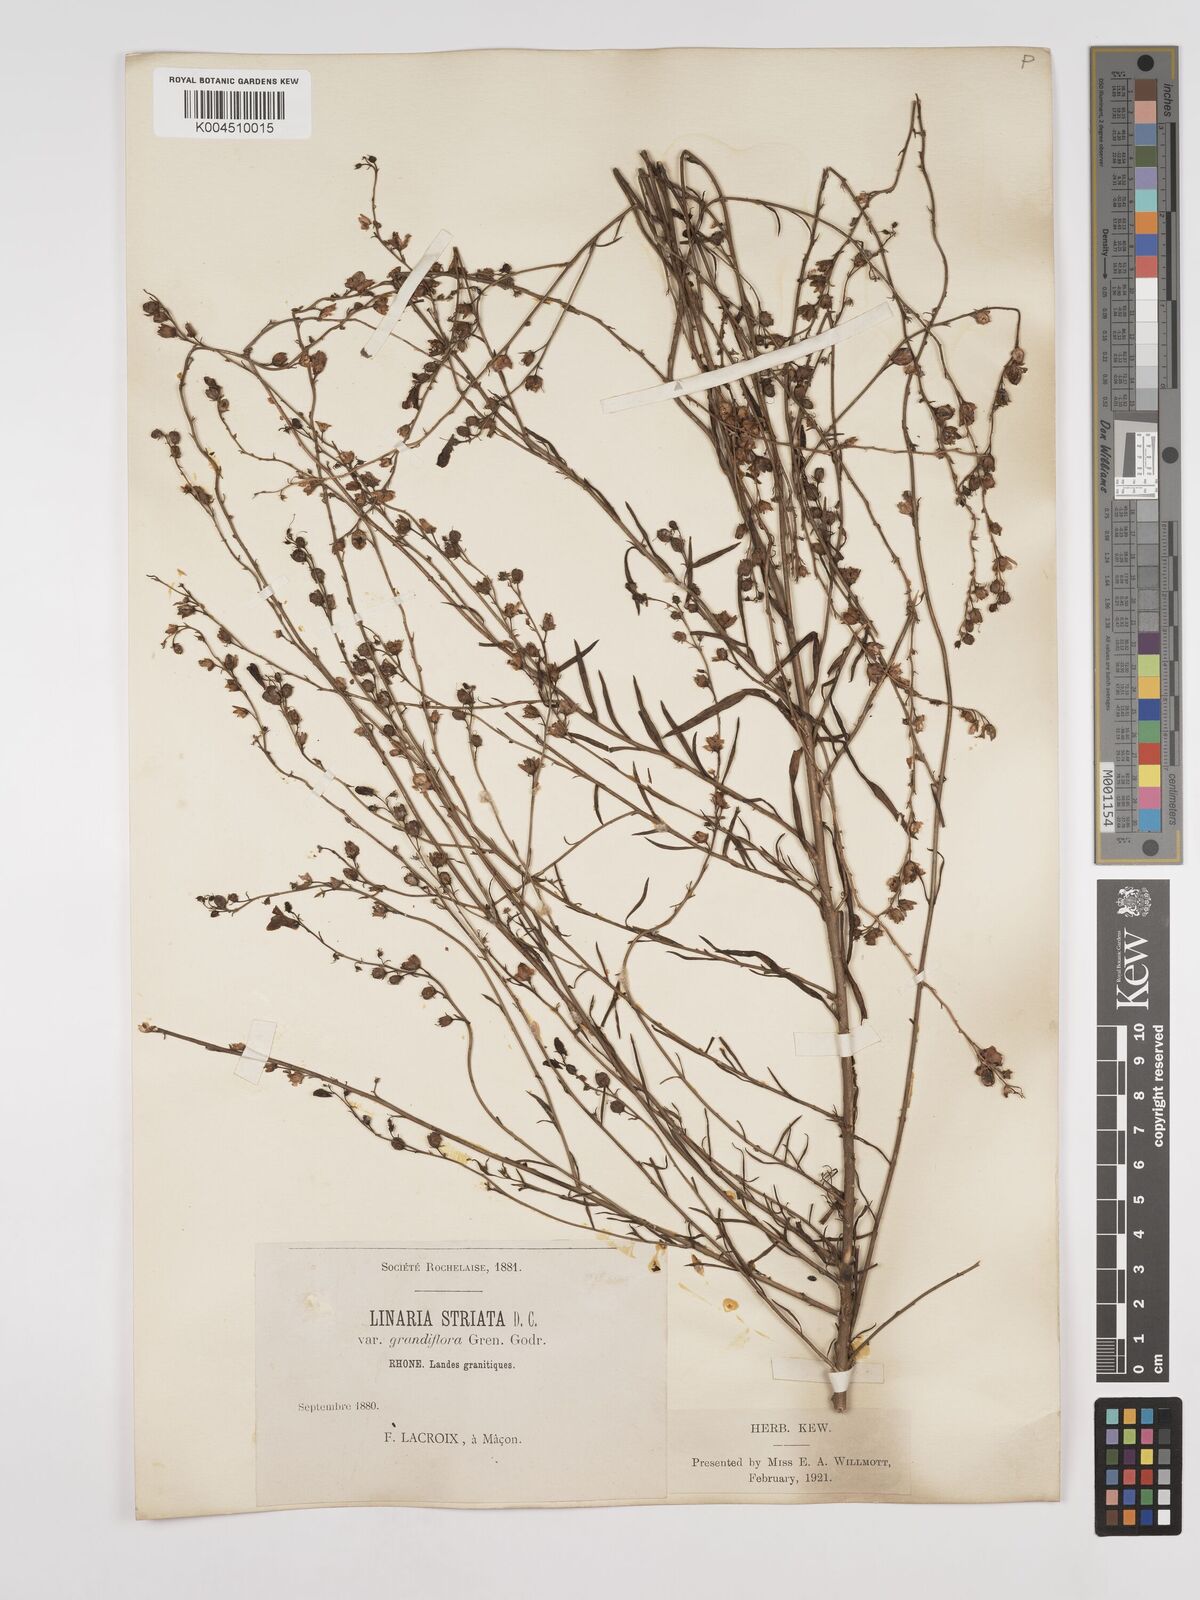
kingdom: Plantae
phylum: Tracheophyta
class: Magnoliopsida
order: Lamiales
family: Plantaginaceae
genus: Linaria
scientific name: Linaria repens
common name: Pale toadflax
